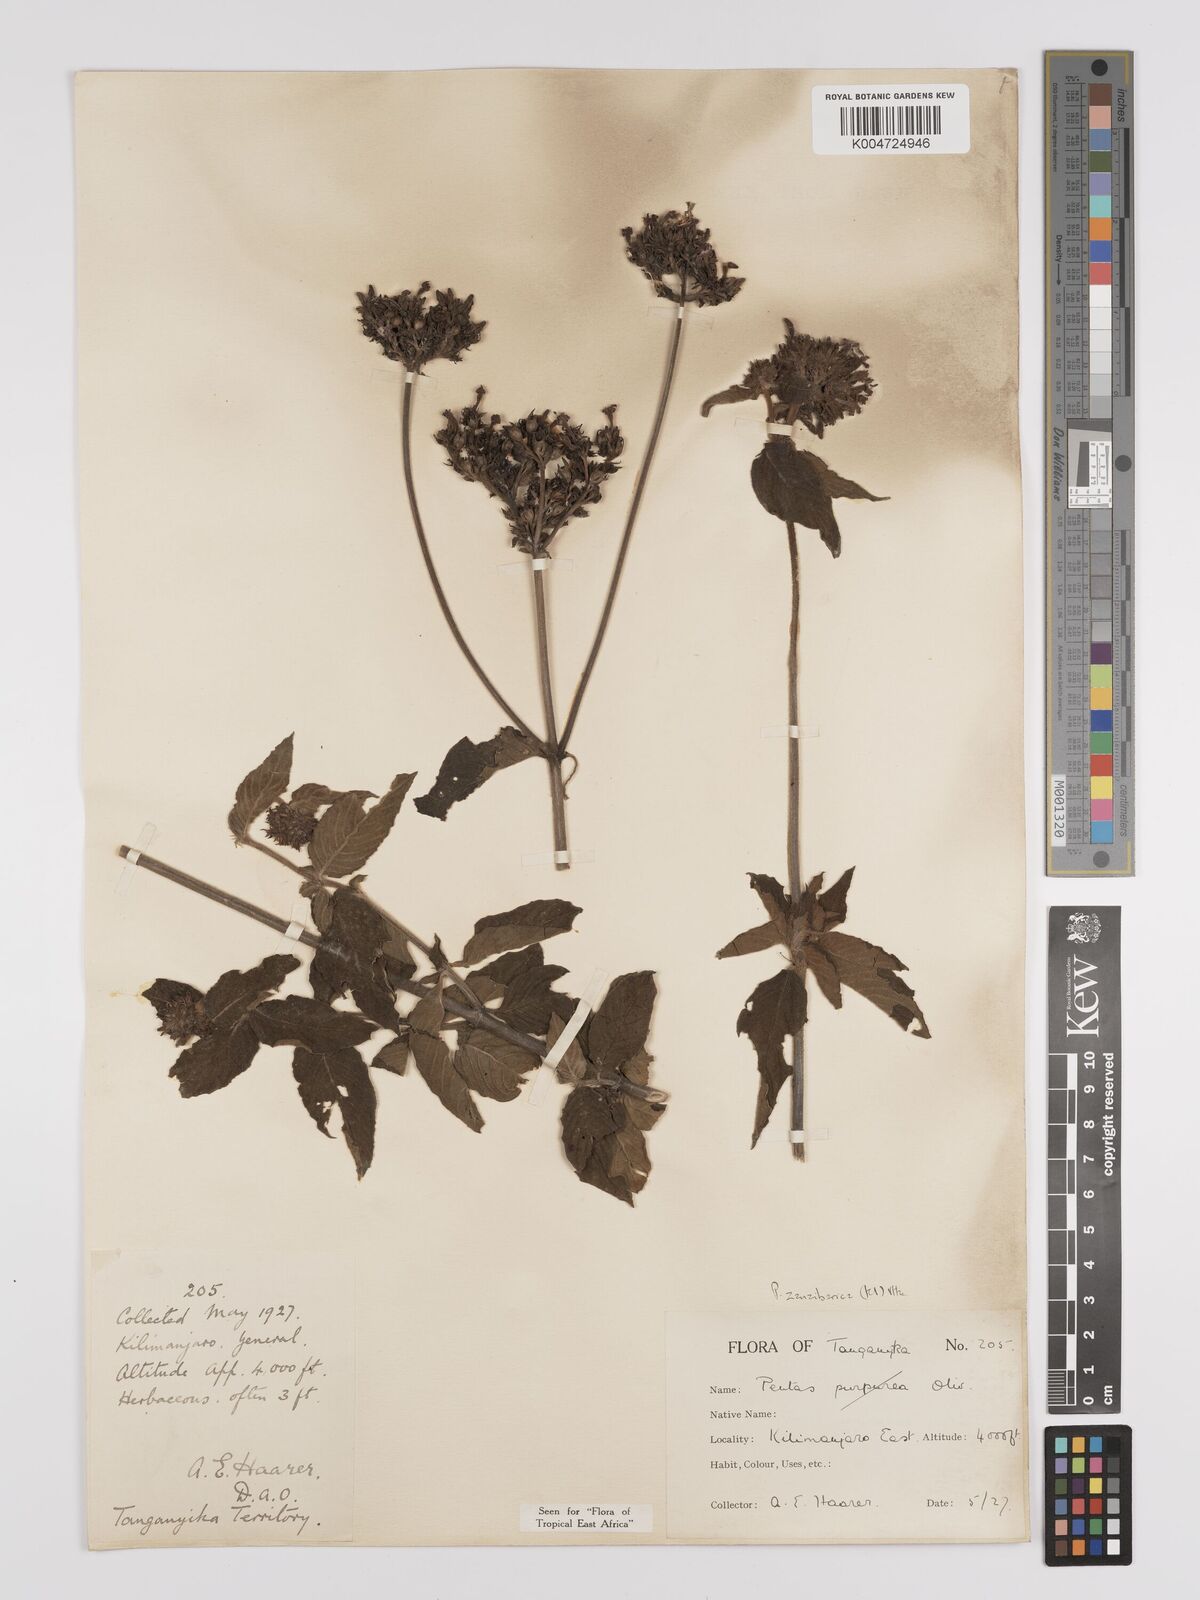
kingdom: Plantae
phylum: Tracheophyta
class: Magnoliopsida
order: Gentianales
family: Rubiaceae
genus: Pentas
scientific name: Pentas zanzibarica
